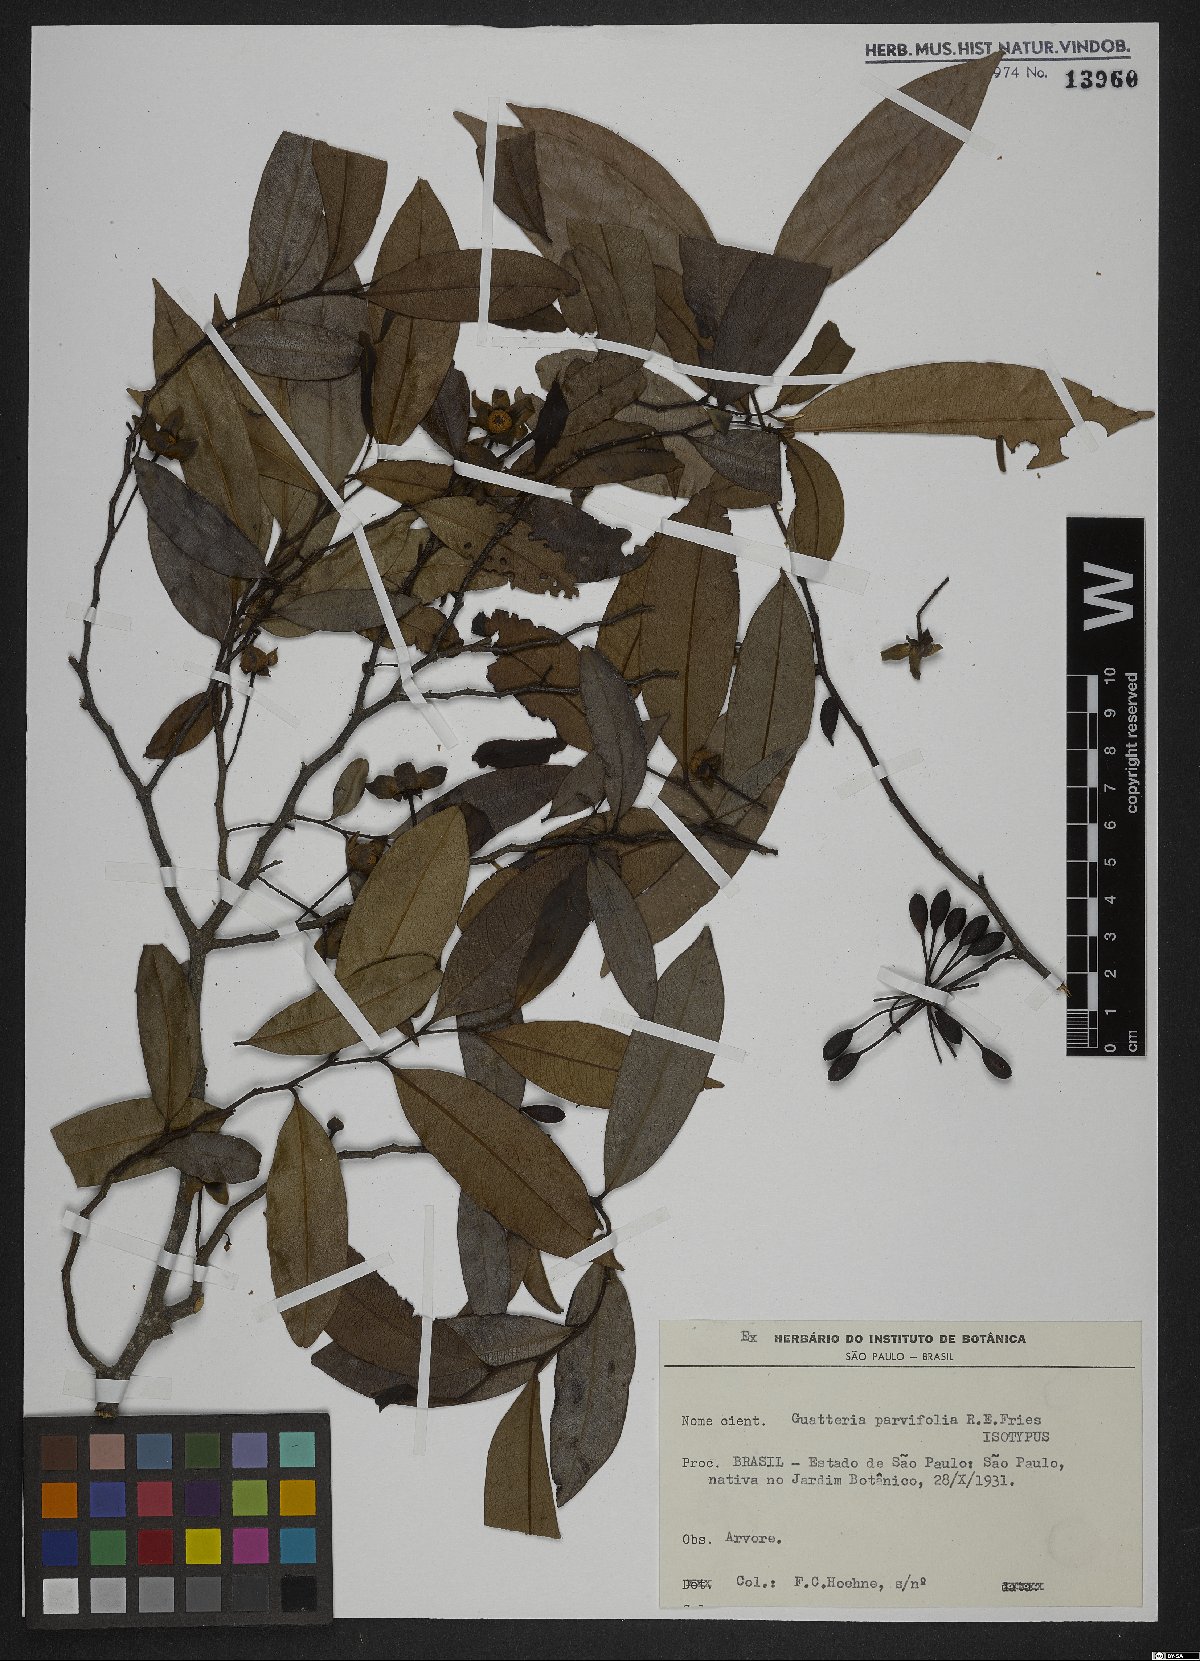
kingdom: Plantae
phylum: Tracheophyta
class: Magnoliopsida
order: Magnoliales
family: Annonaceae
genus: Guatteria
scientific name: Guatteria australis
